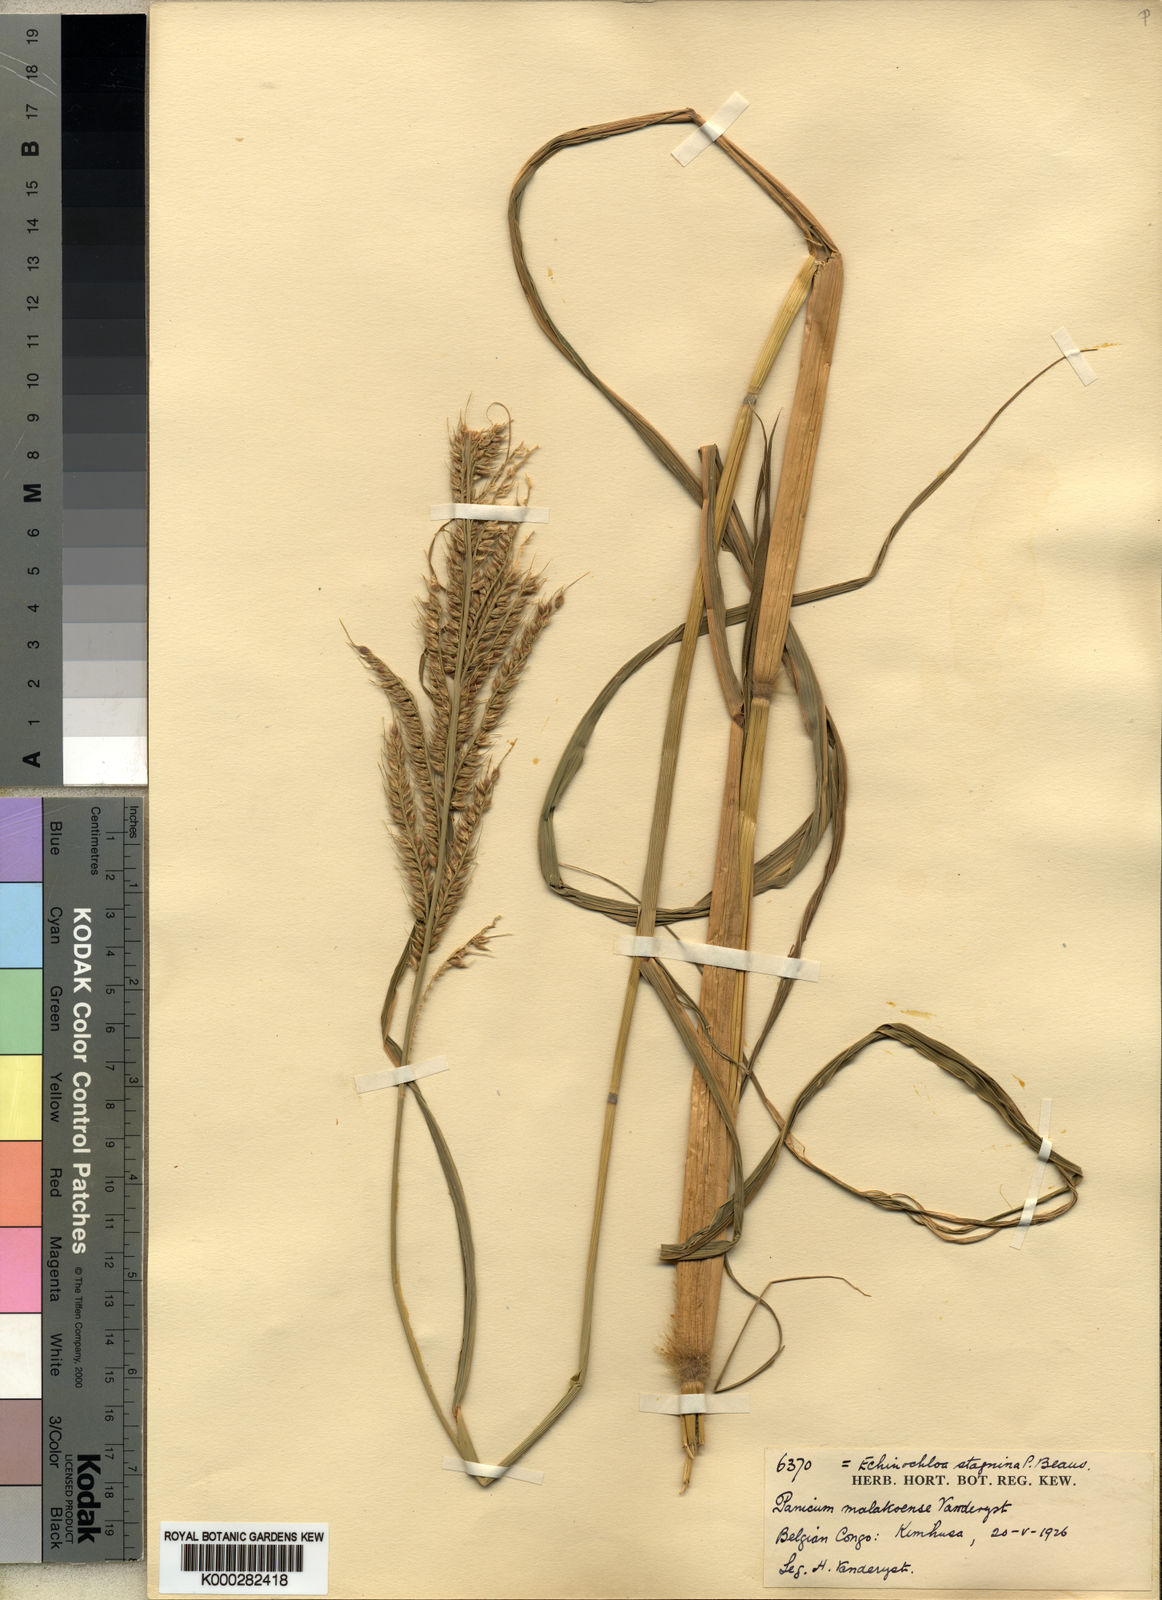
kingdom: Plantae
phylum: Tracheophyta
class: Liliopsida
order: Poales
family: Poaceae
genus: Panicum
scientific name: Panicum fauriei
